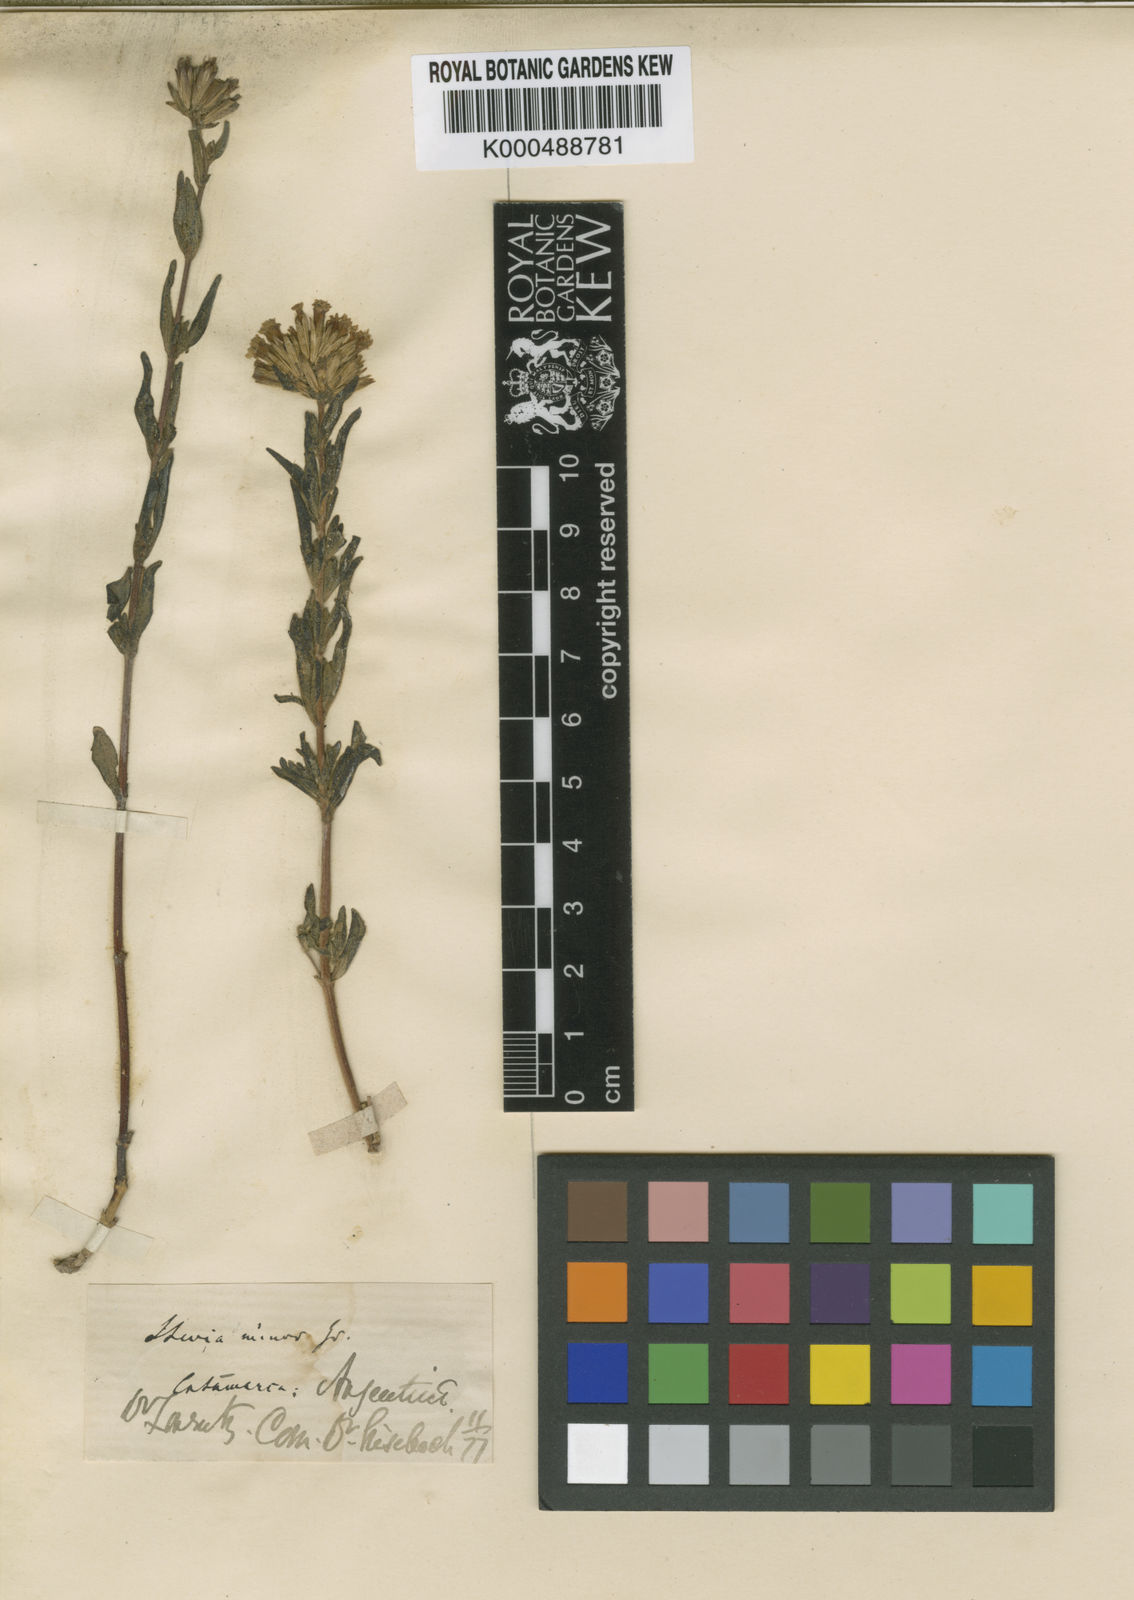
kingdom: Plantae
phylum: Tracheophyta
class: Magnoliopsida
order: Asterales
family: Asteraceae
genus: Stevia
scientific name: Stevia minor
